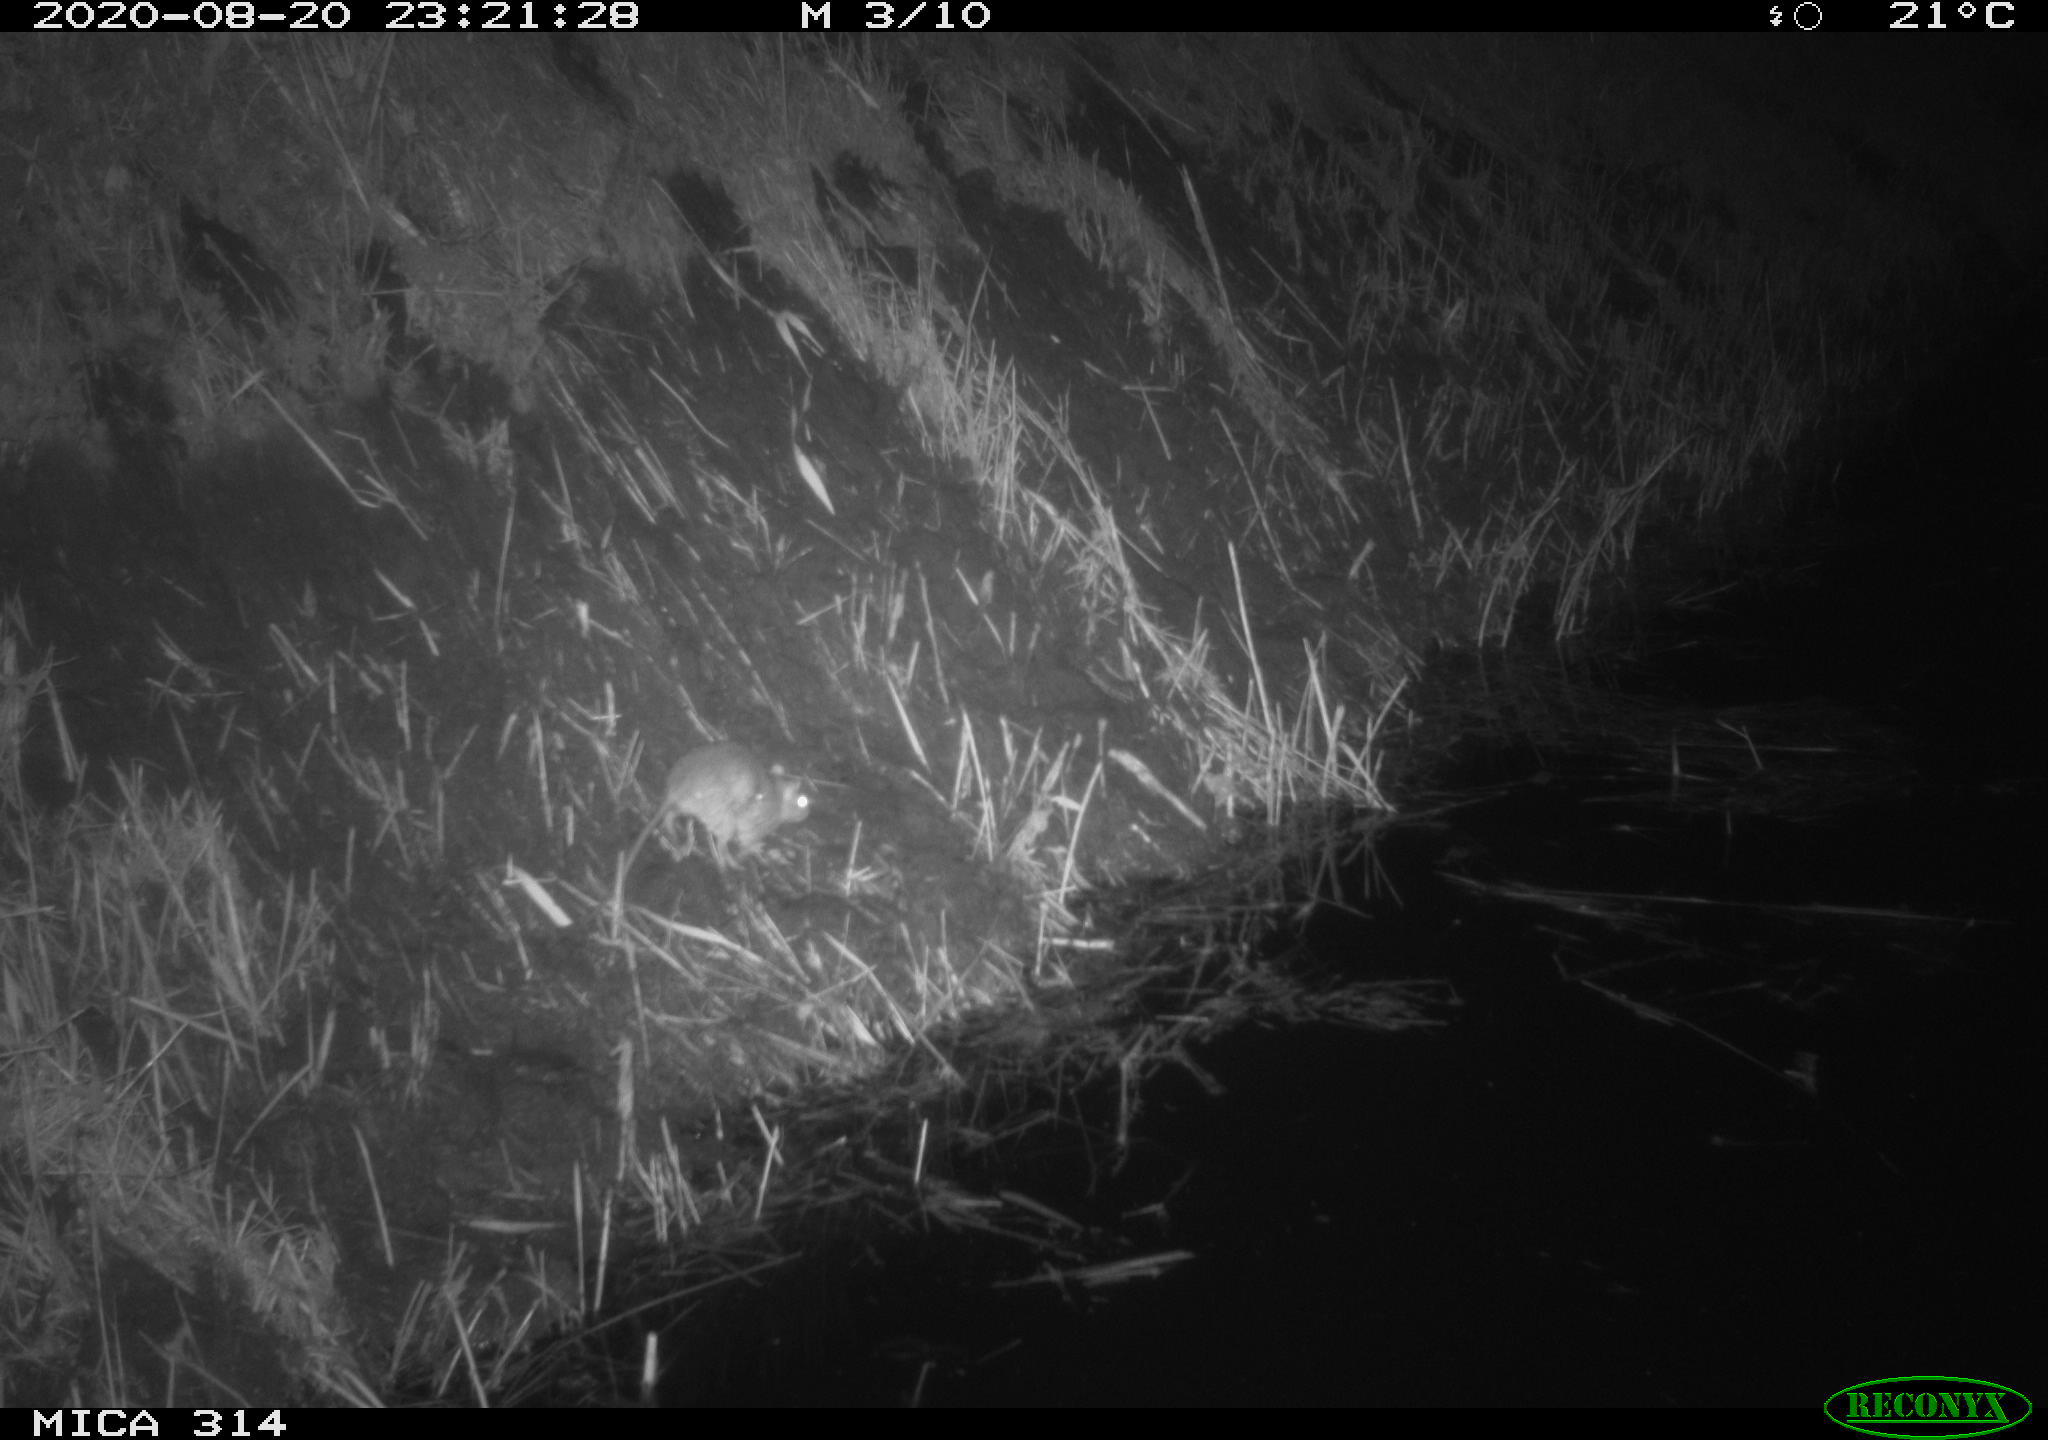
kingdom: Animalia
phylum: Chordata
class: Mammalia
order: Rodentia
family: Muridae
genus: Rattus
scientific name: Rattus norvegicus
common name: Brown rat
